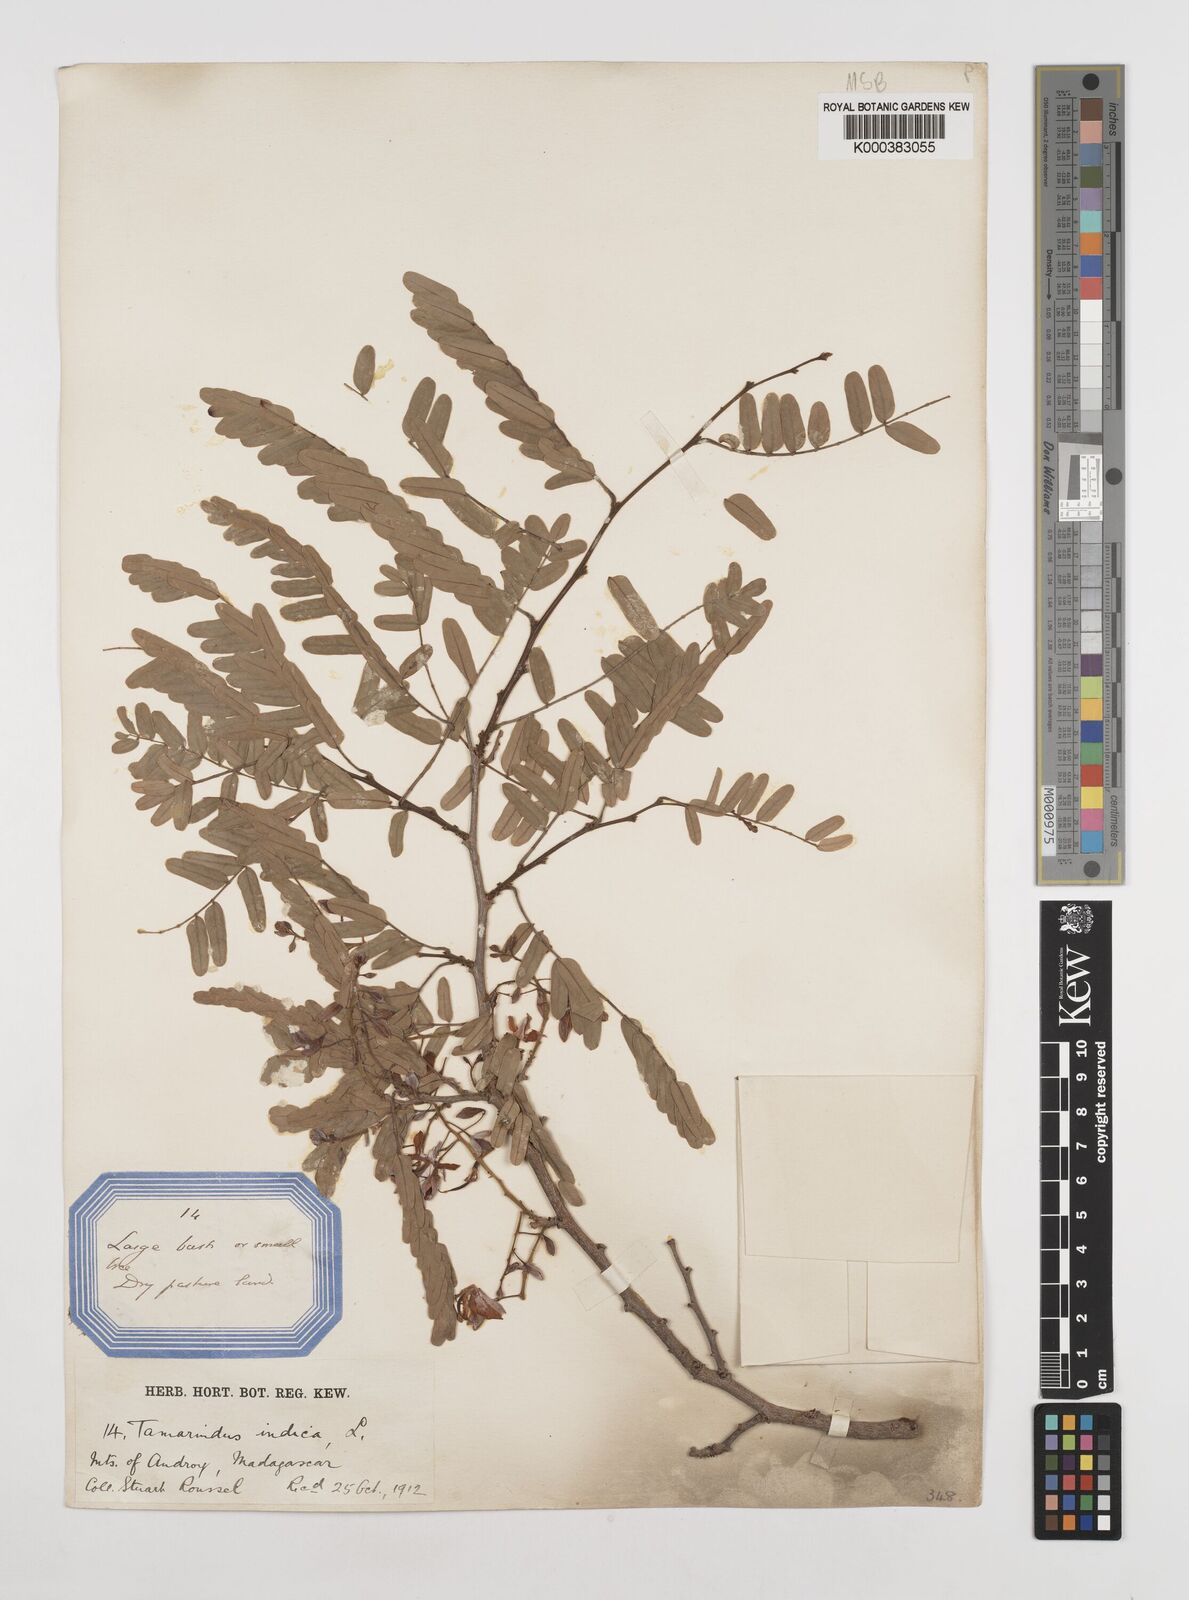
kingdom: Plantae
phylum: Tracheophyta
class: Magnoliopsida
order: Fabales
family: Fabaceae
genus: Tamarindus
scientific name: Tamarindus indica
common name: Tamarind
